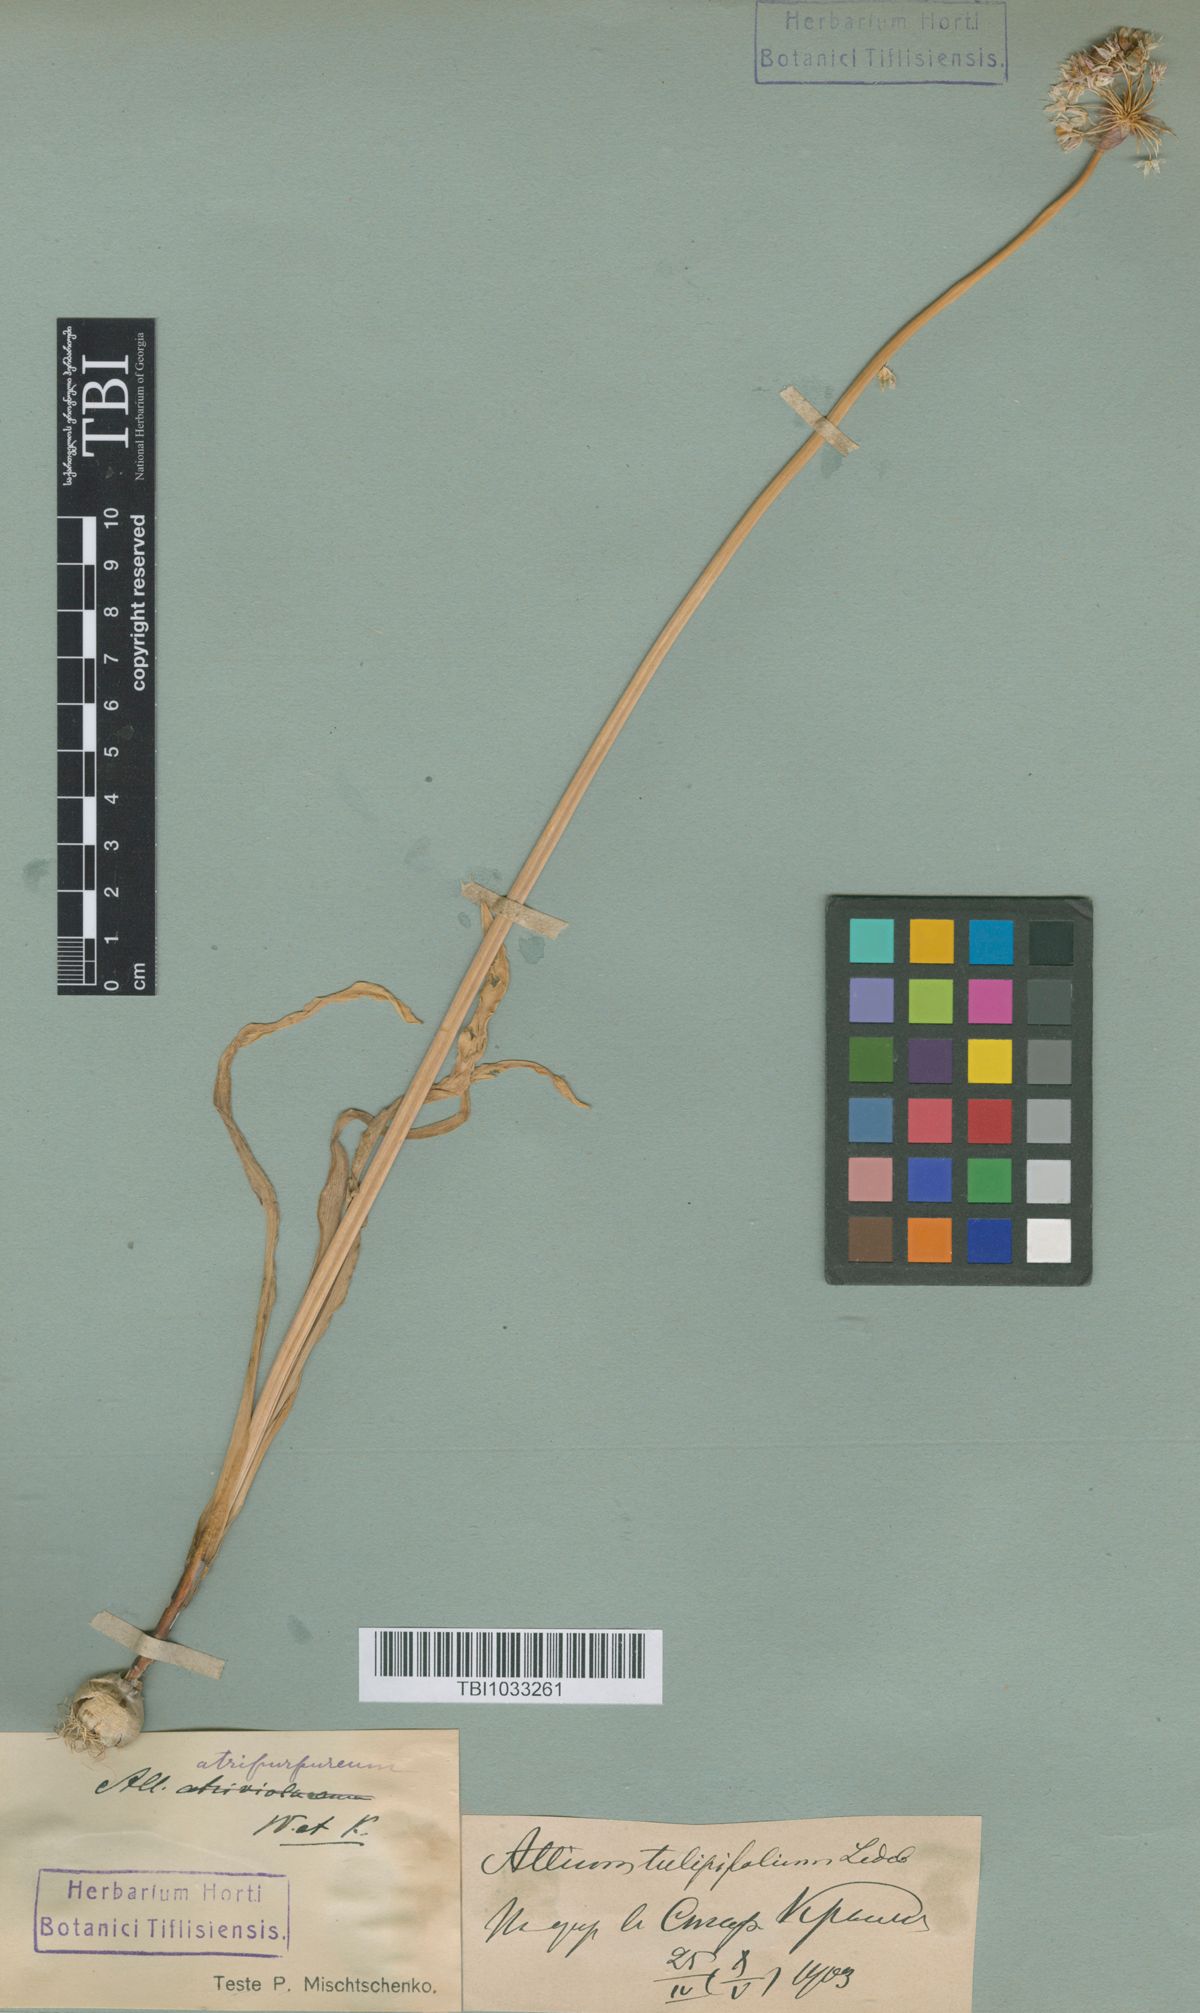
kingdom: Plantae
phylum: Tracheophyta
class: Liliopsida
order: Asparagales
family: Amaryllidaceae
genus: Allium
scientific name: Allium decipiens
